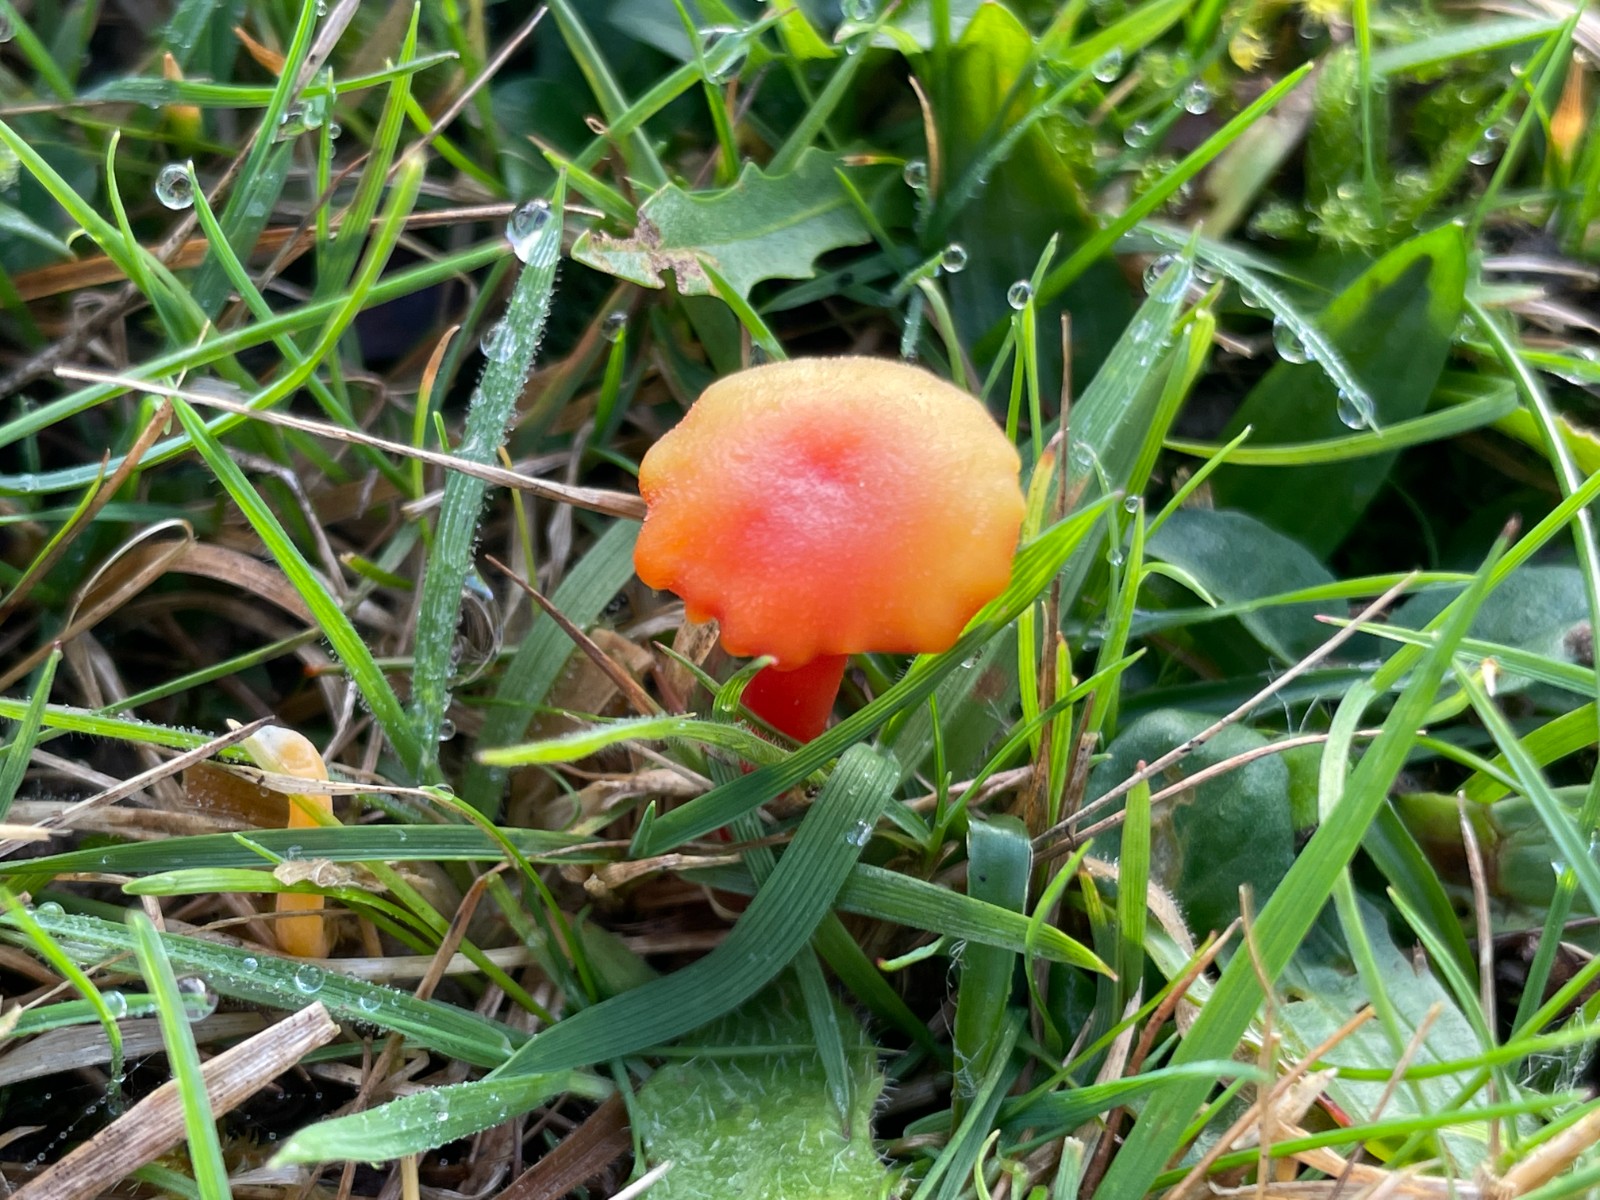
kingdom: Fungi
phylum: Basidiomycota
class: Agaricomycetes
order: Agaricales
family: Hygrophoraceae
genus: Hygrocybe
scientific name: Hygrocybe cantharellus
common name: kantarel-vokshat
